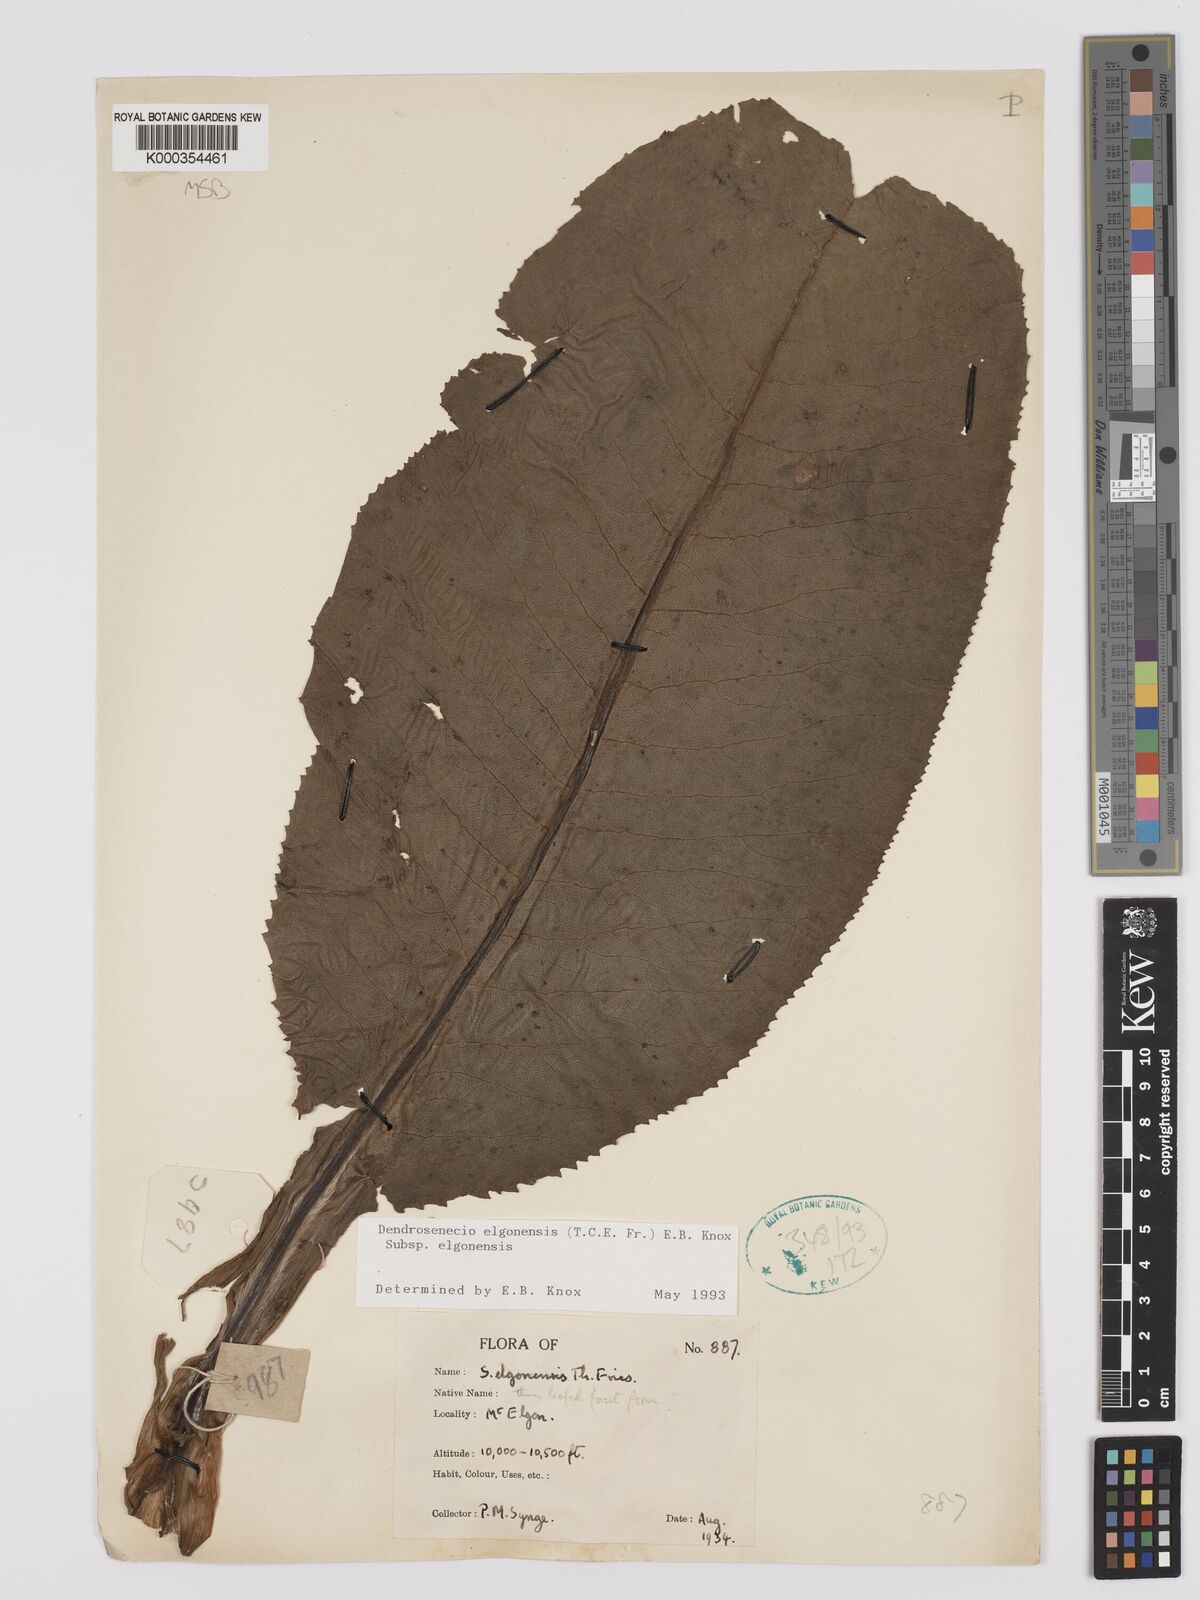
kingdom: Plantae
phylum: Tracheophyta
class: Magnoliopsida
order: Asterales
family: Asteraceae
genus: Dendrosenecio
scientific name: Dendrosenecio elgonensis
